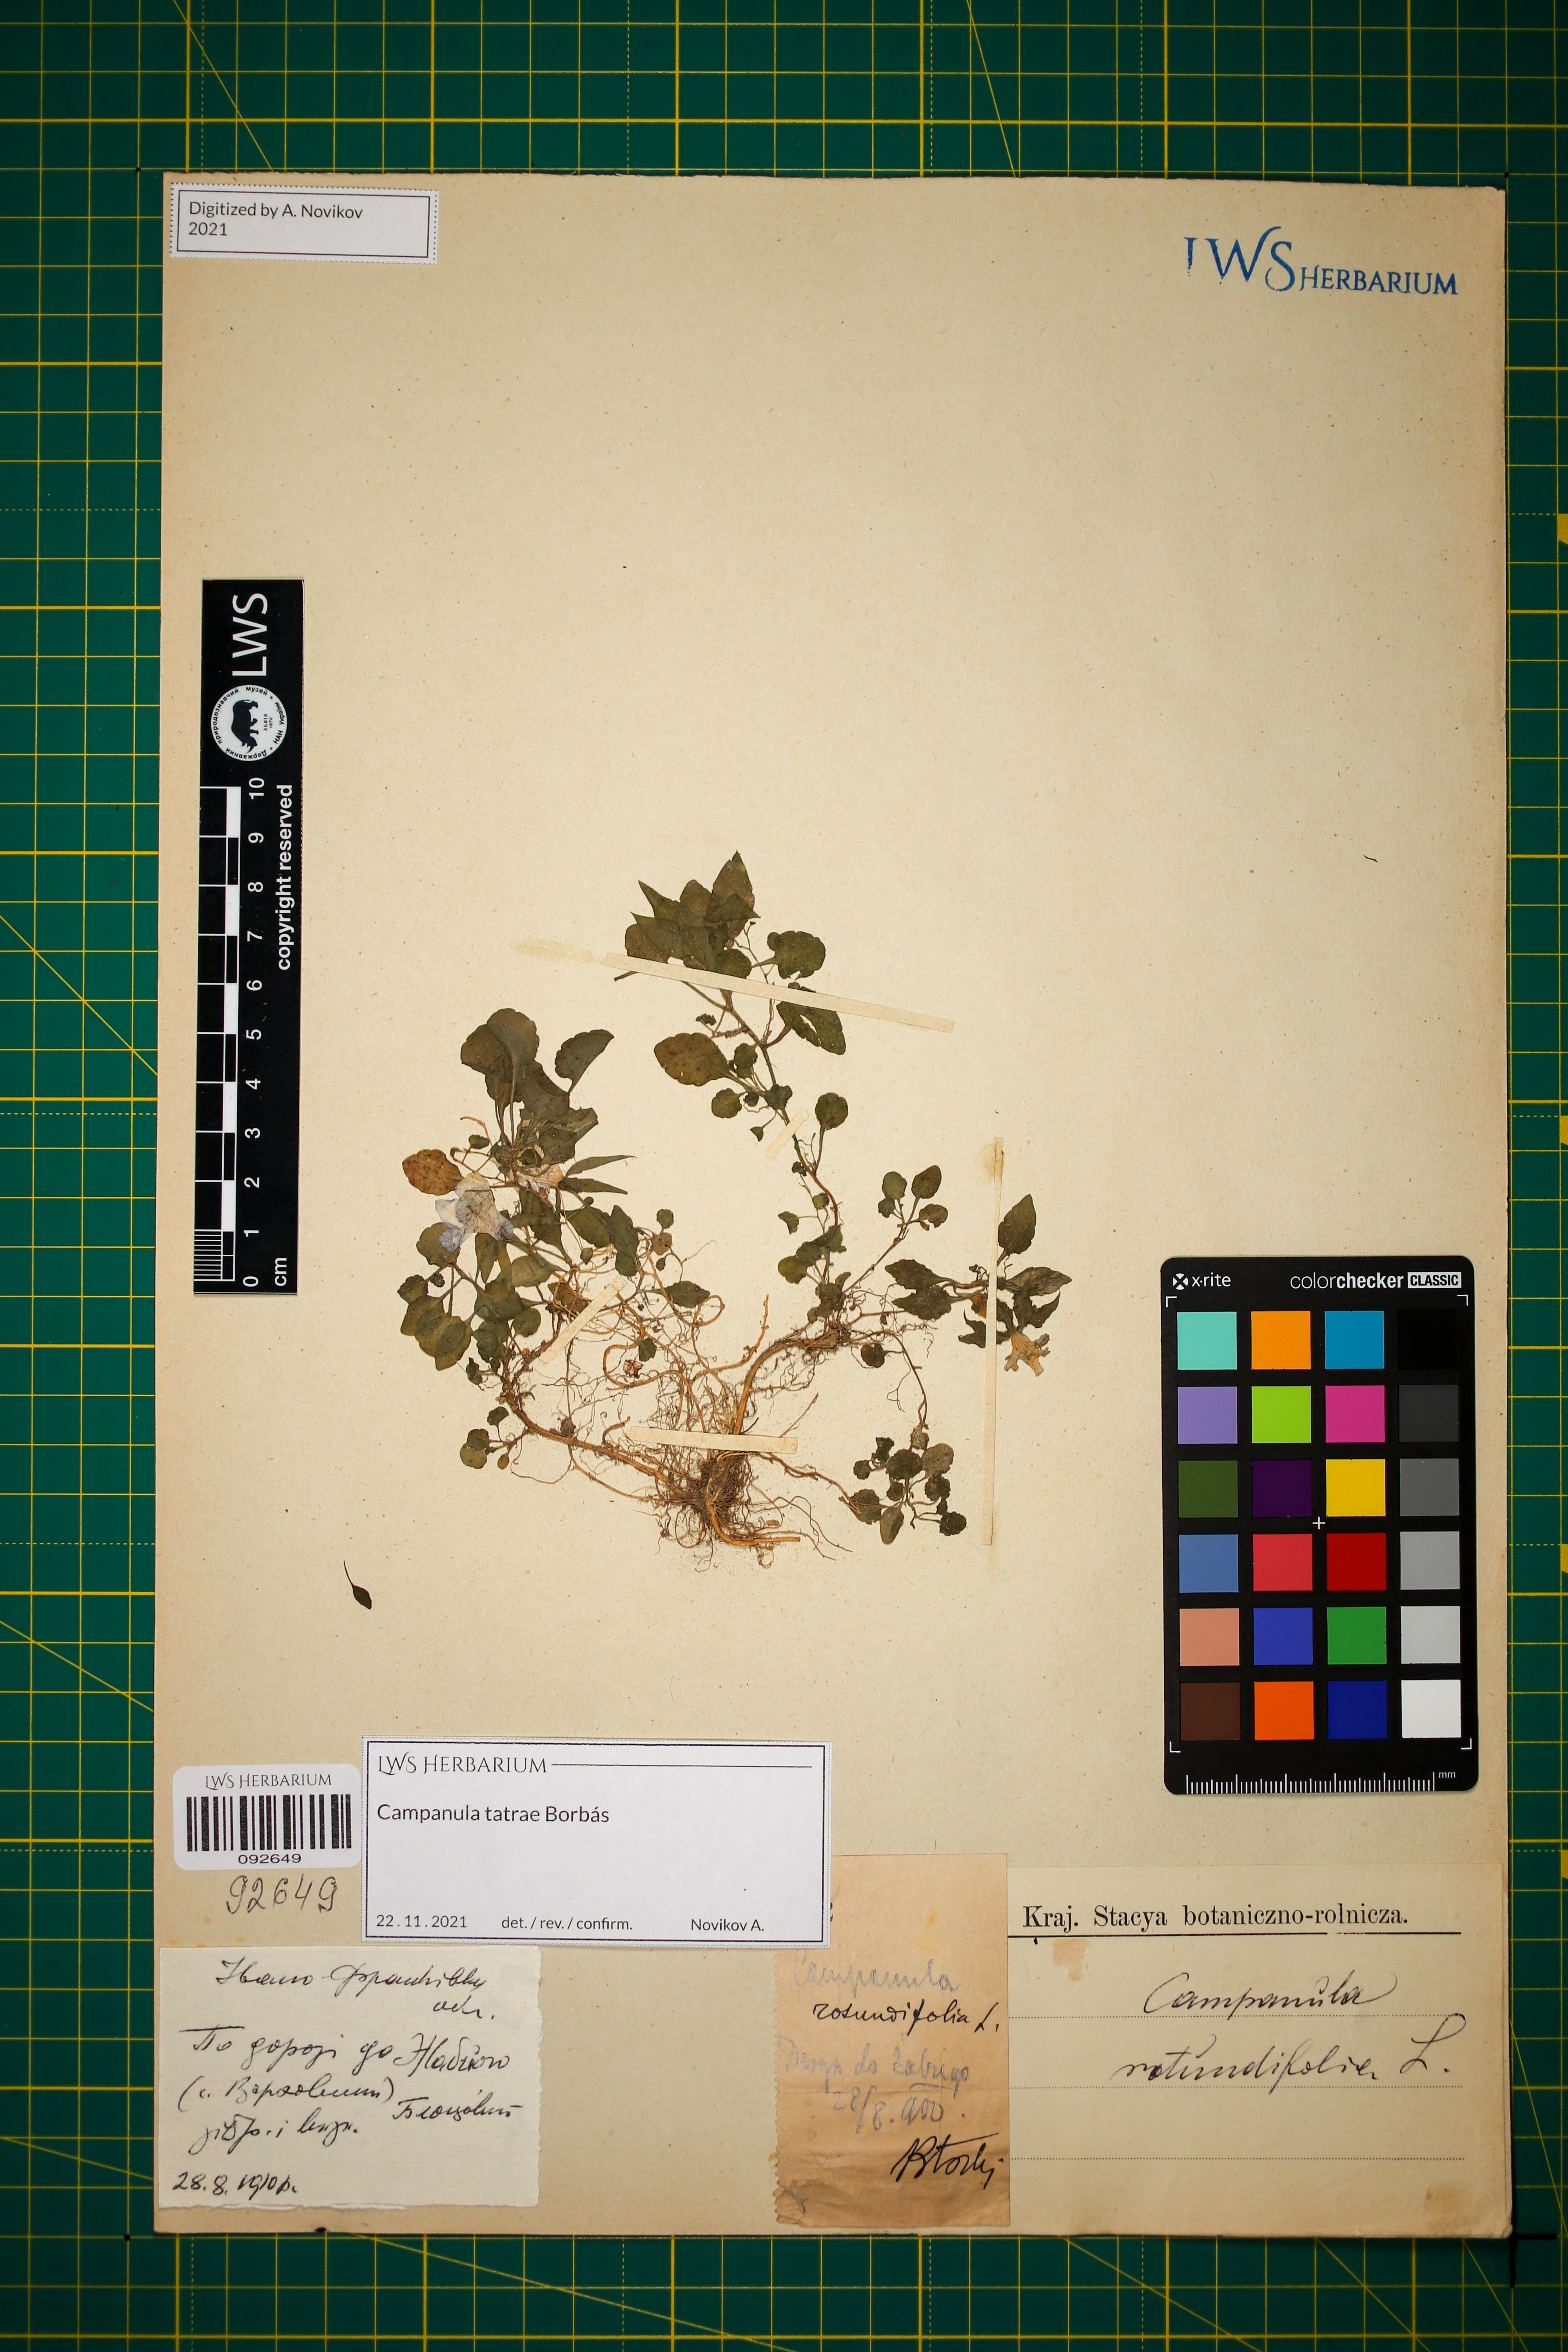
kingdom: Plantae
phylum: Tracheophyta
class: Magnoliopsida
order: Asterales
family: Campanulaceae
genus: Campanula
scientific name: Campanula tatrae
